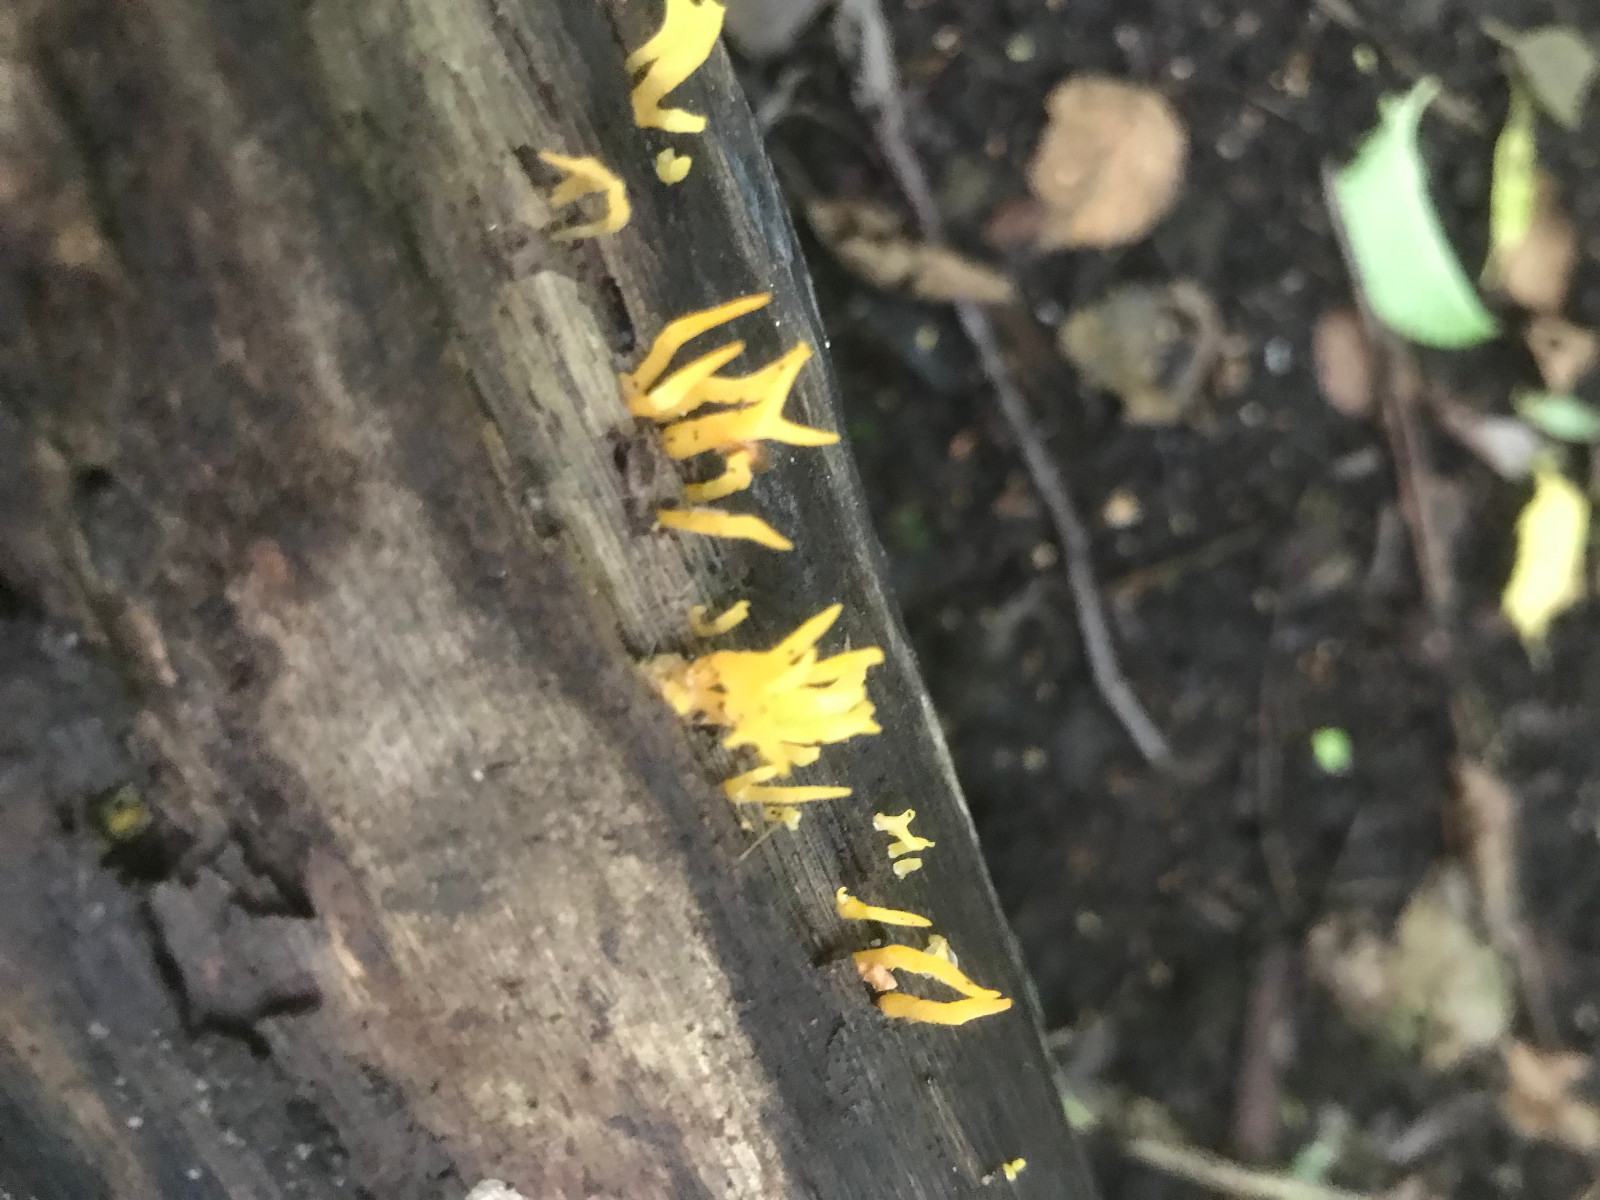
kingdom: Fungi
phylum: Basidiomycota
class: Dacrymycetes
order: Dacrymycetales
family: Dacrymycetaceae
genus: Calocera
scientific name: Calocera cornea
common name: liden guldgaffel
